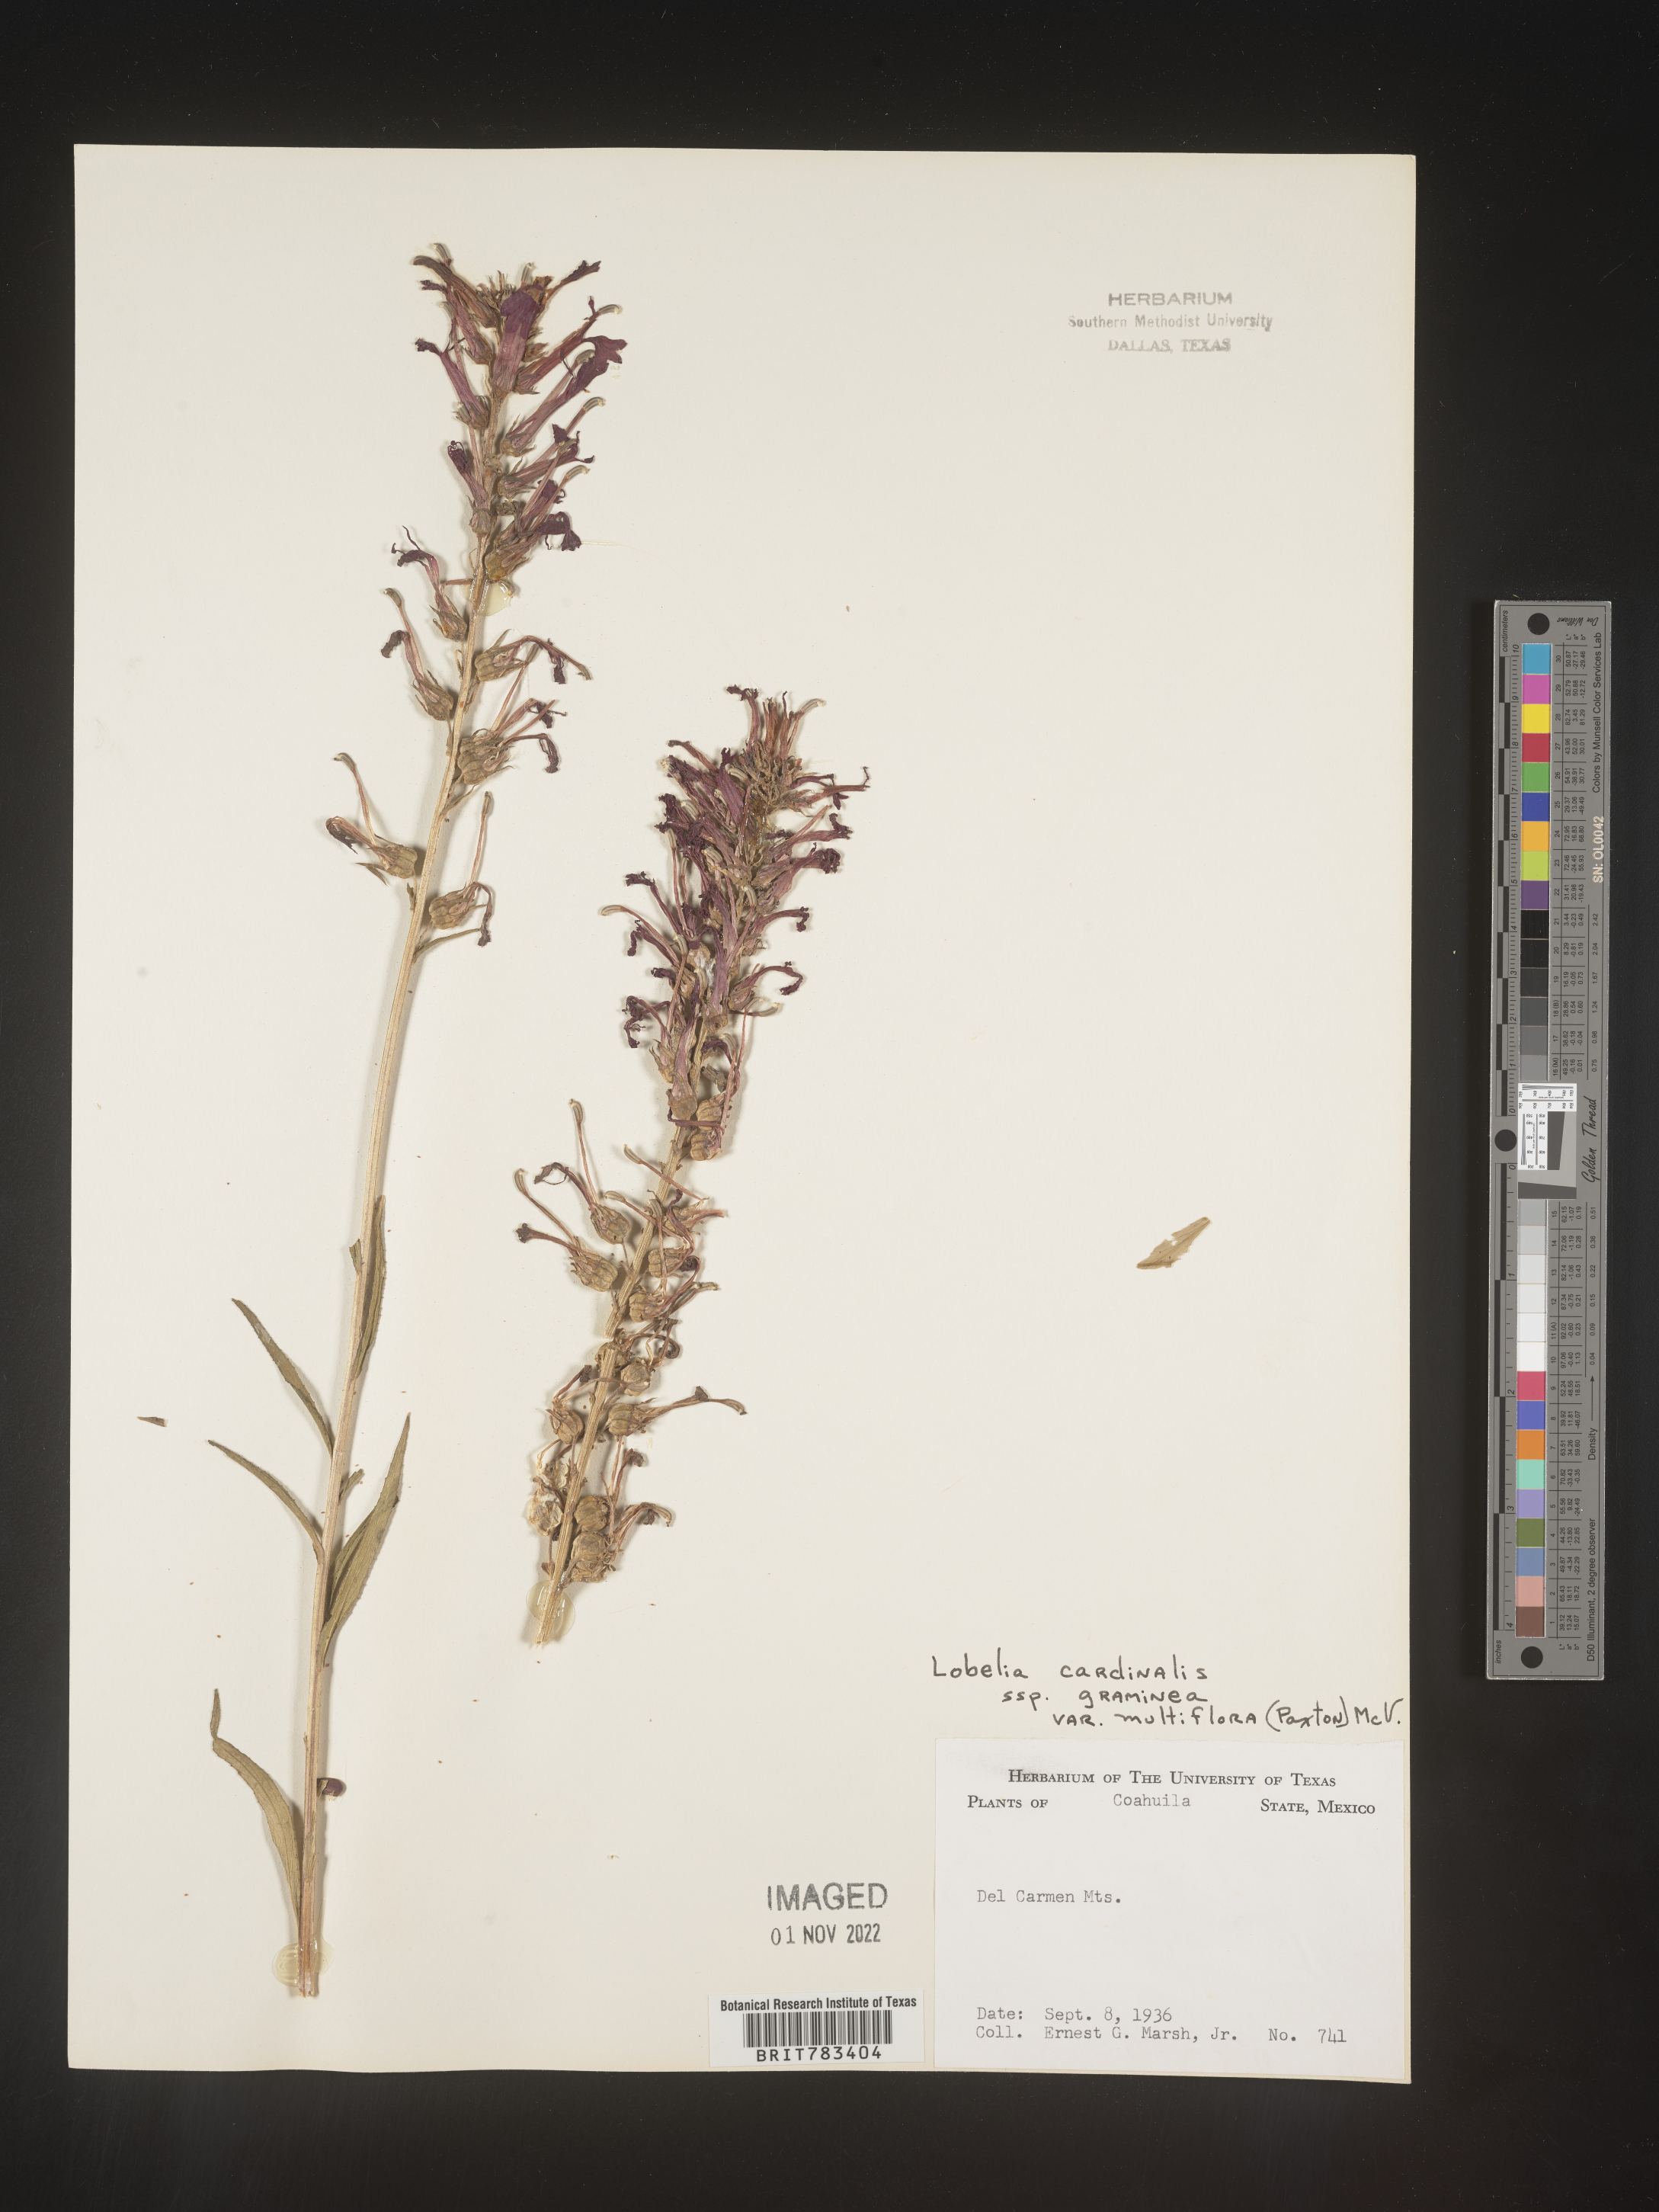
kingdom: Plantae
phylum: Tracheophyta
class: Magnoliopsida
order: Asterales
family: Campanulaceae
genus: Lobelia
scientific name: Lobelia
